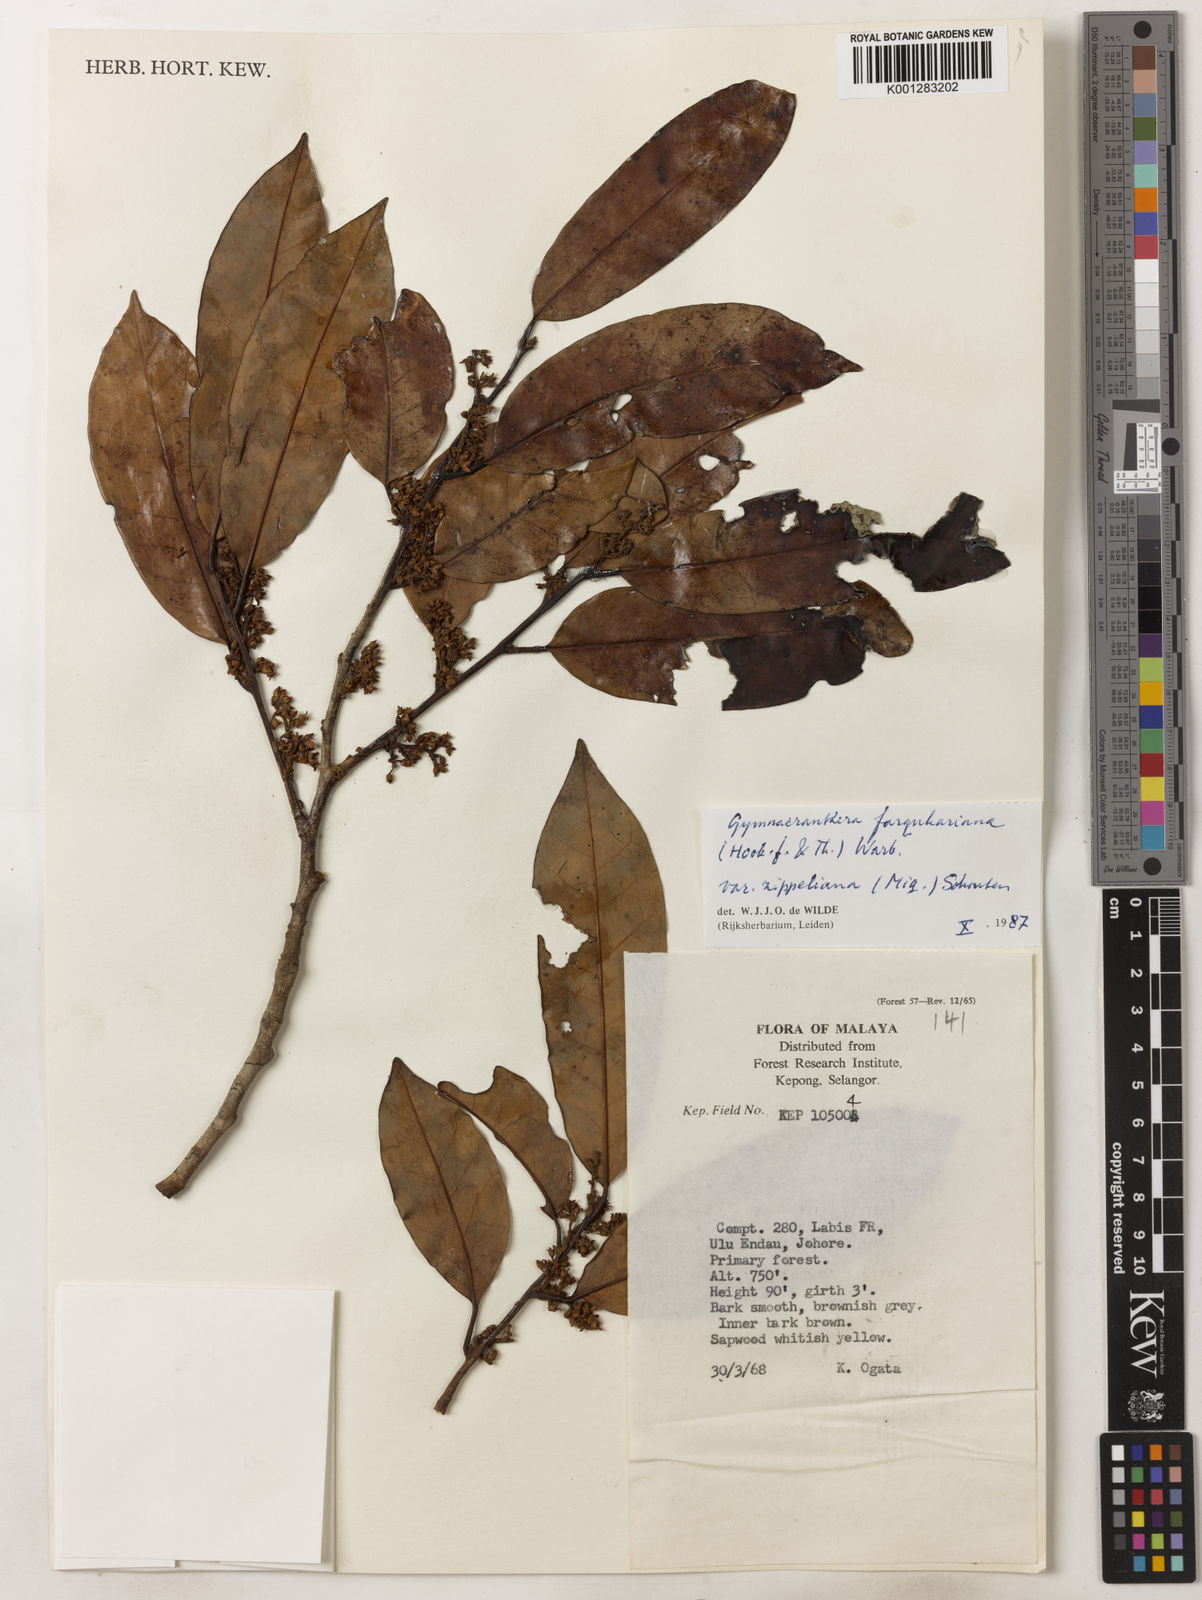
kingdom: Plantae
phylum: Tracheophyta
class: Magnoliopsida
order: Magnoliales
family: Myristicaceae
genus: Gymnacranthera
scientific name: Gymnacranthera farquhariana
